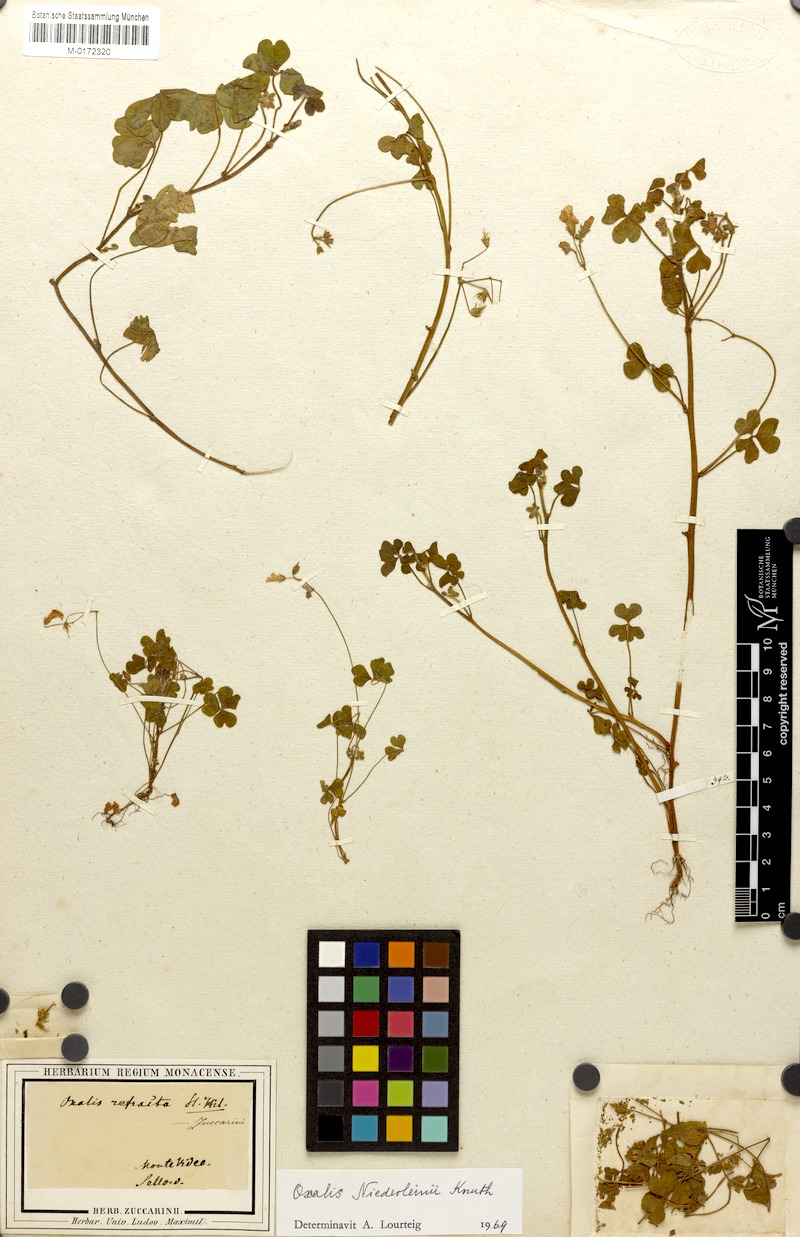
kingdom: Plantae
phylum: Tracheophyta
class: Magnoliopsida
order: Oxalidales
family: Oxalidaceae
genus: Oxalis
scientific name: Oxalis niederleinii
